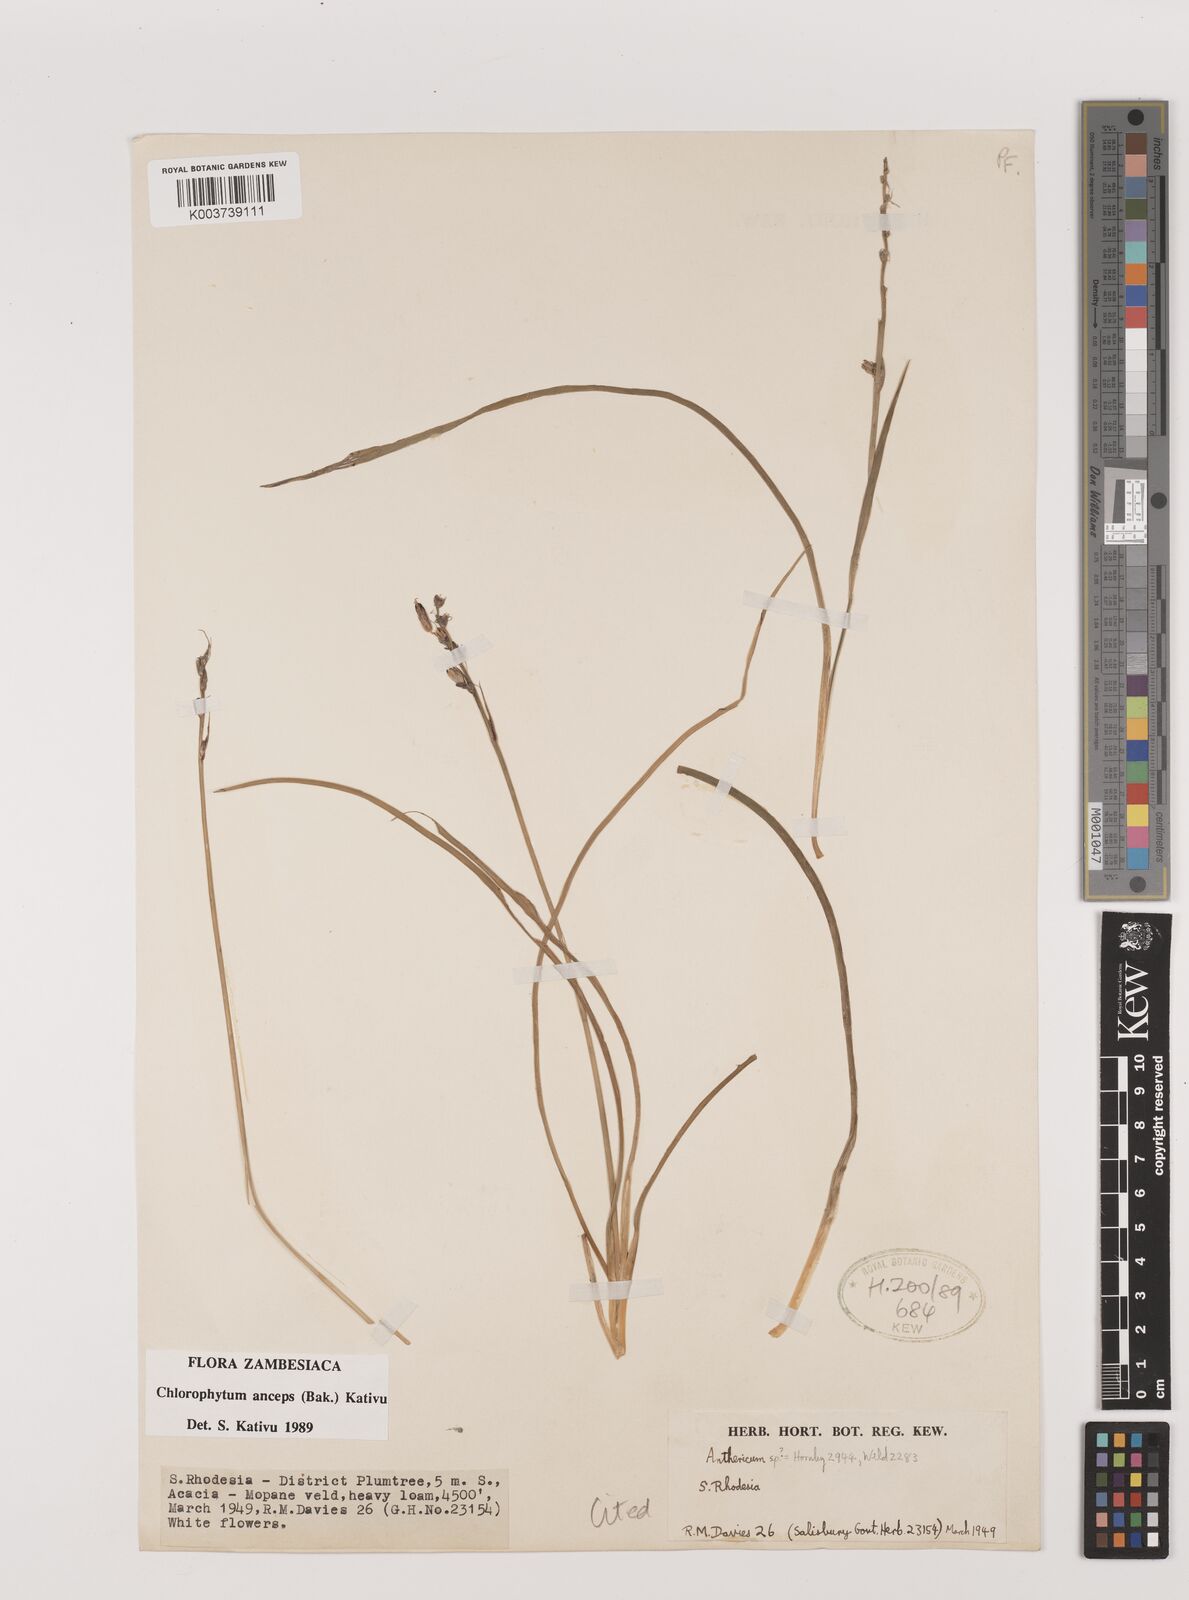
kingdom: Plantae
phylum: Tracheophyta
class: Liliopsida
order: Asparagales
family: Asparagaceae
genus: Chlorophytum
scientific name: Chlorophytum anceps
